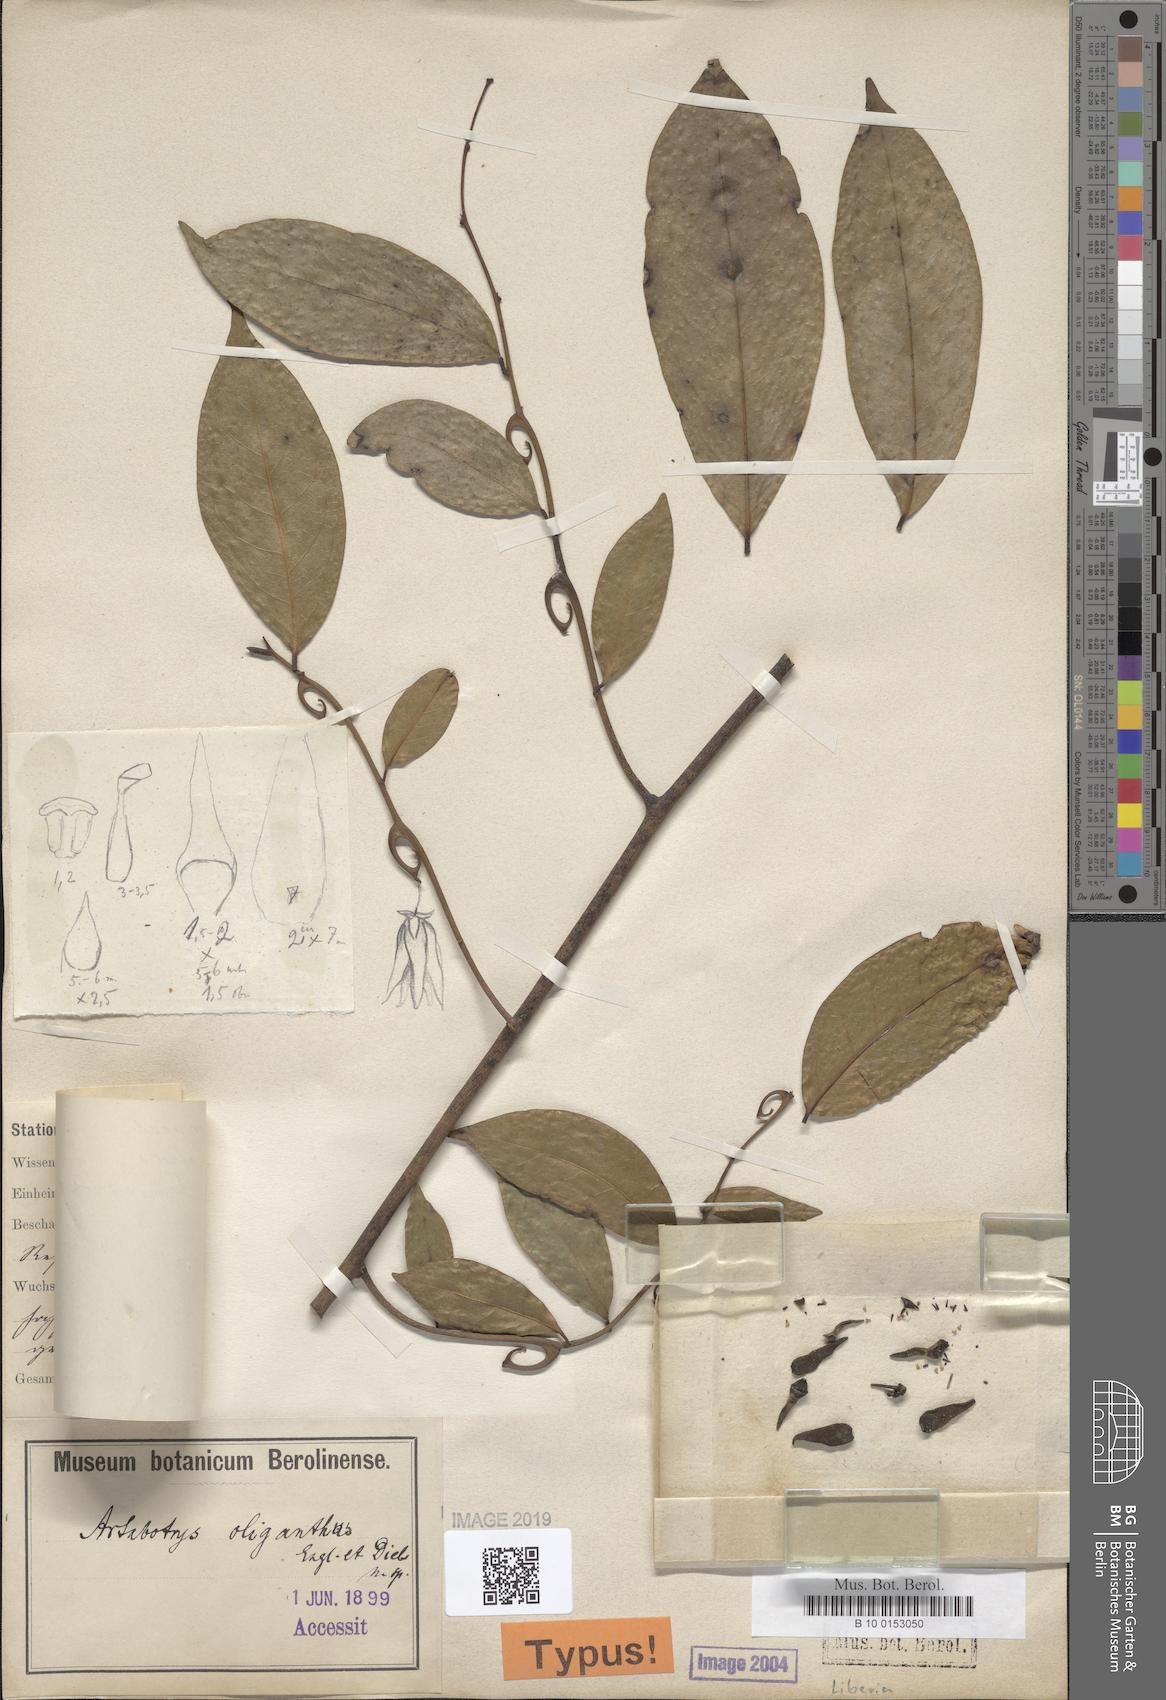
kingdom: Plantae
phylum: Tracheophyta
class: Magnoliopsida
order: Magnoliales
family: Annonaceae
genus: Artabotrys
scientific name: Artabotrys oliganthus
